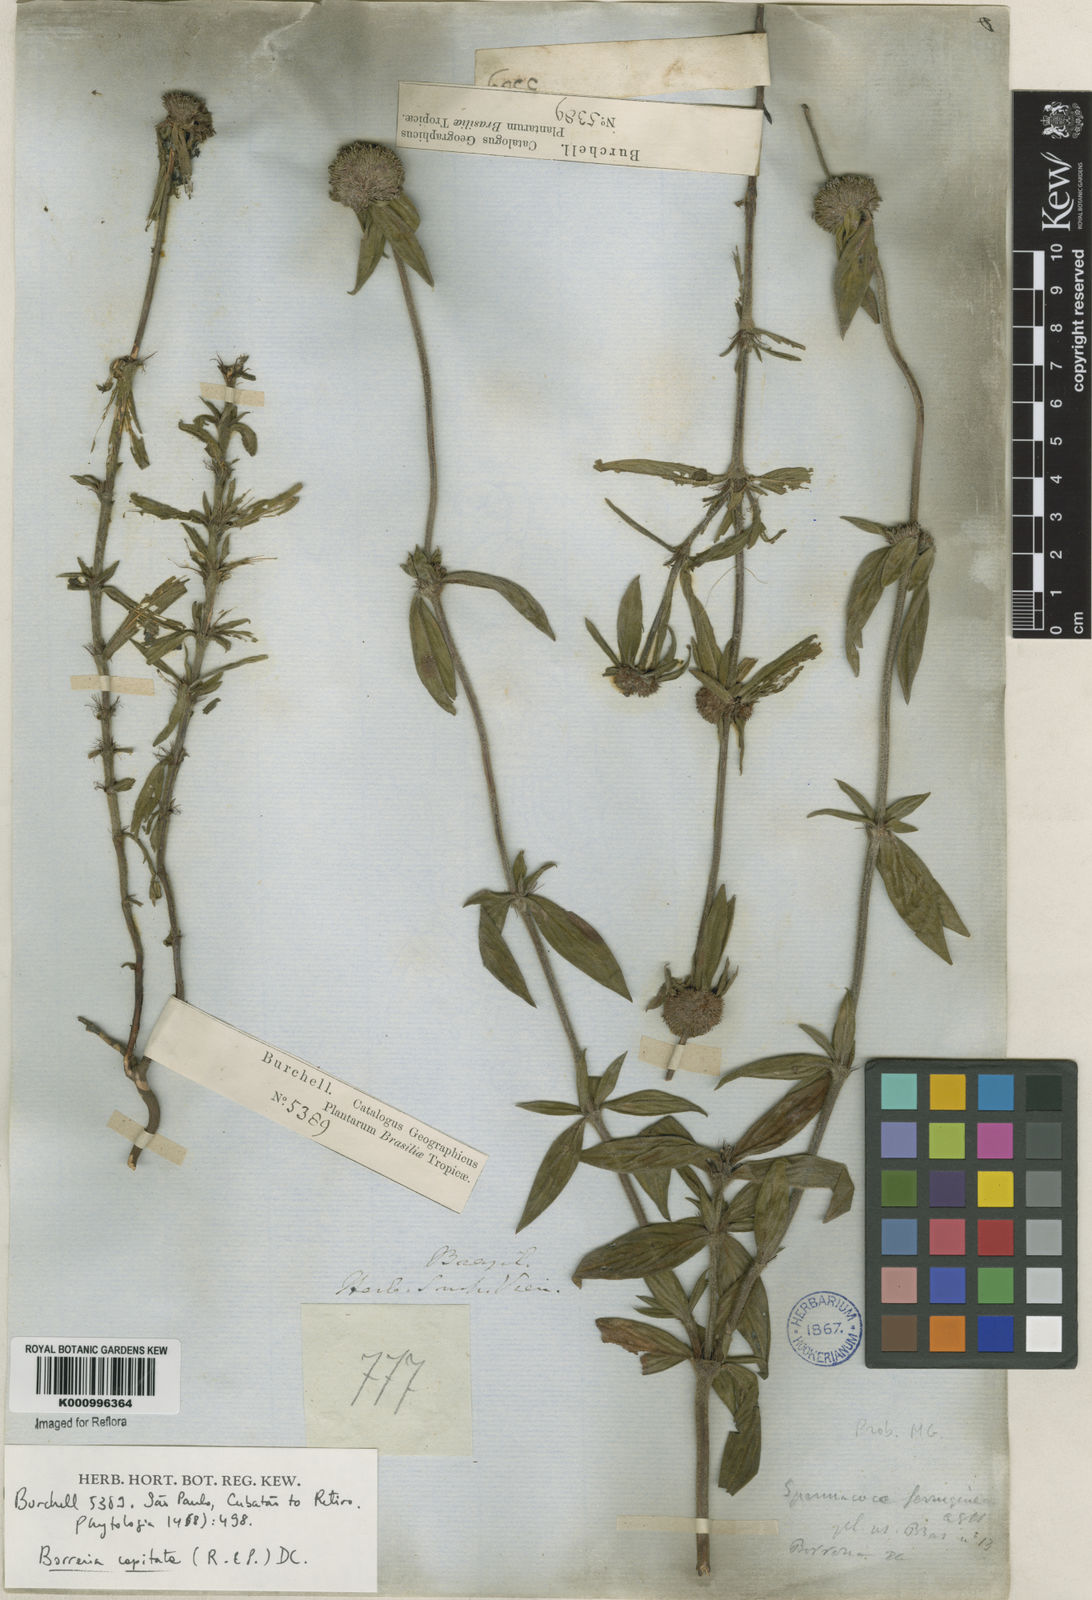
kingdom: Plantae
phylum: Tracheophyta
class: Magnoliopsida
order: Gentianales
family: Rubiaceae
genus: Spermacoce
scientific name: Spermacoce capitata
